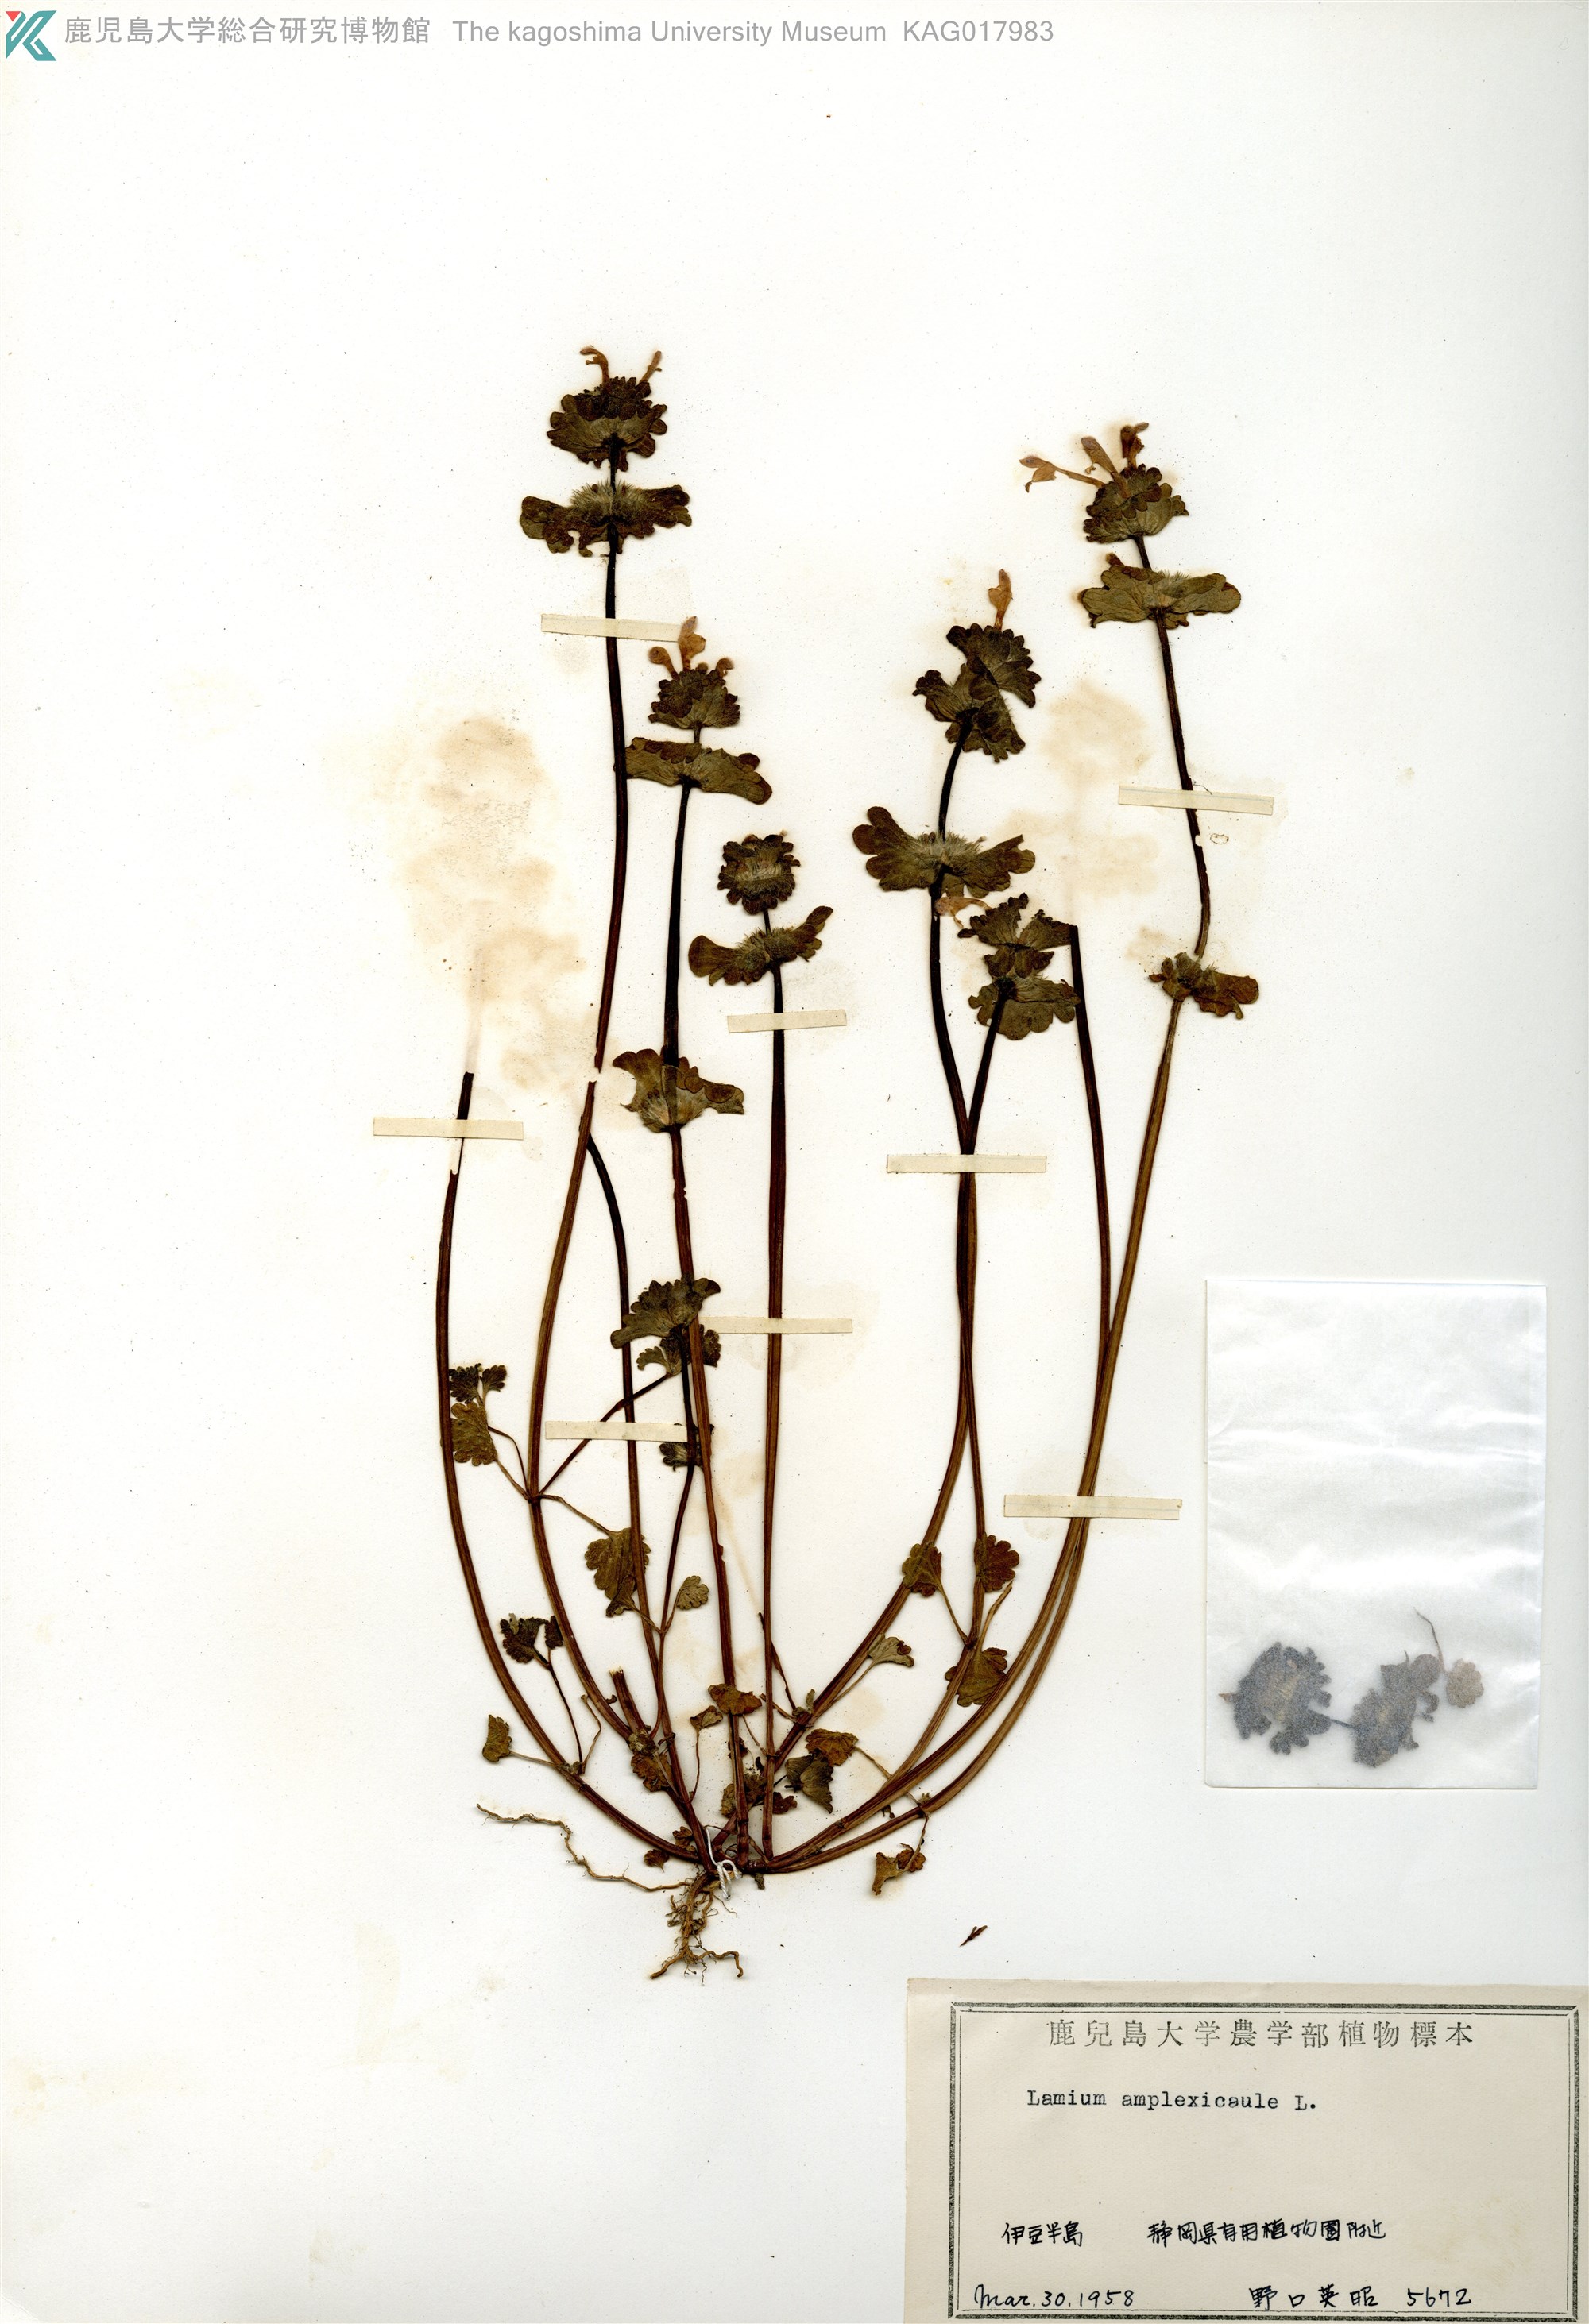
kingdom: Plantae
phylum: Tracheophyta
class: Magnoliopsida
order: Lamiales
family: Lamiaceae
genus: Lamium
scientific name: Lamium amplexicaule
